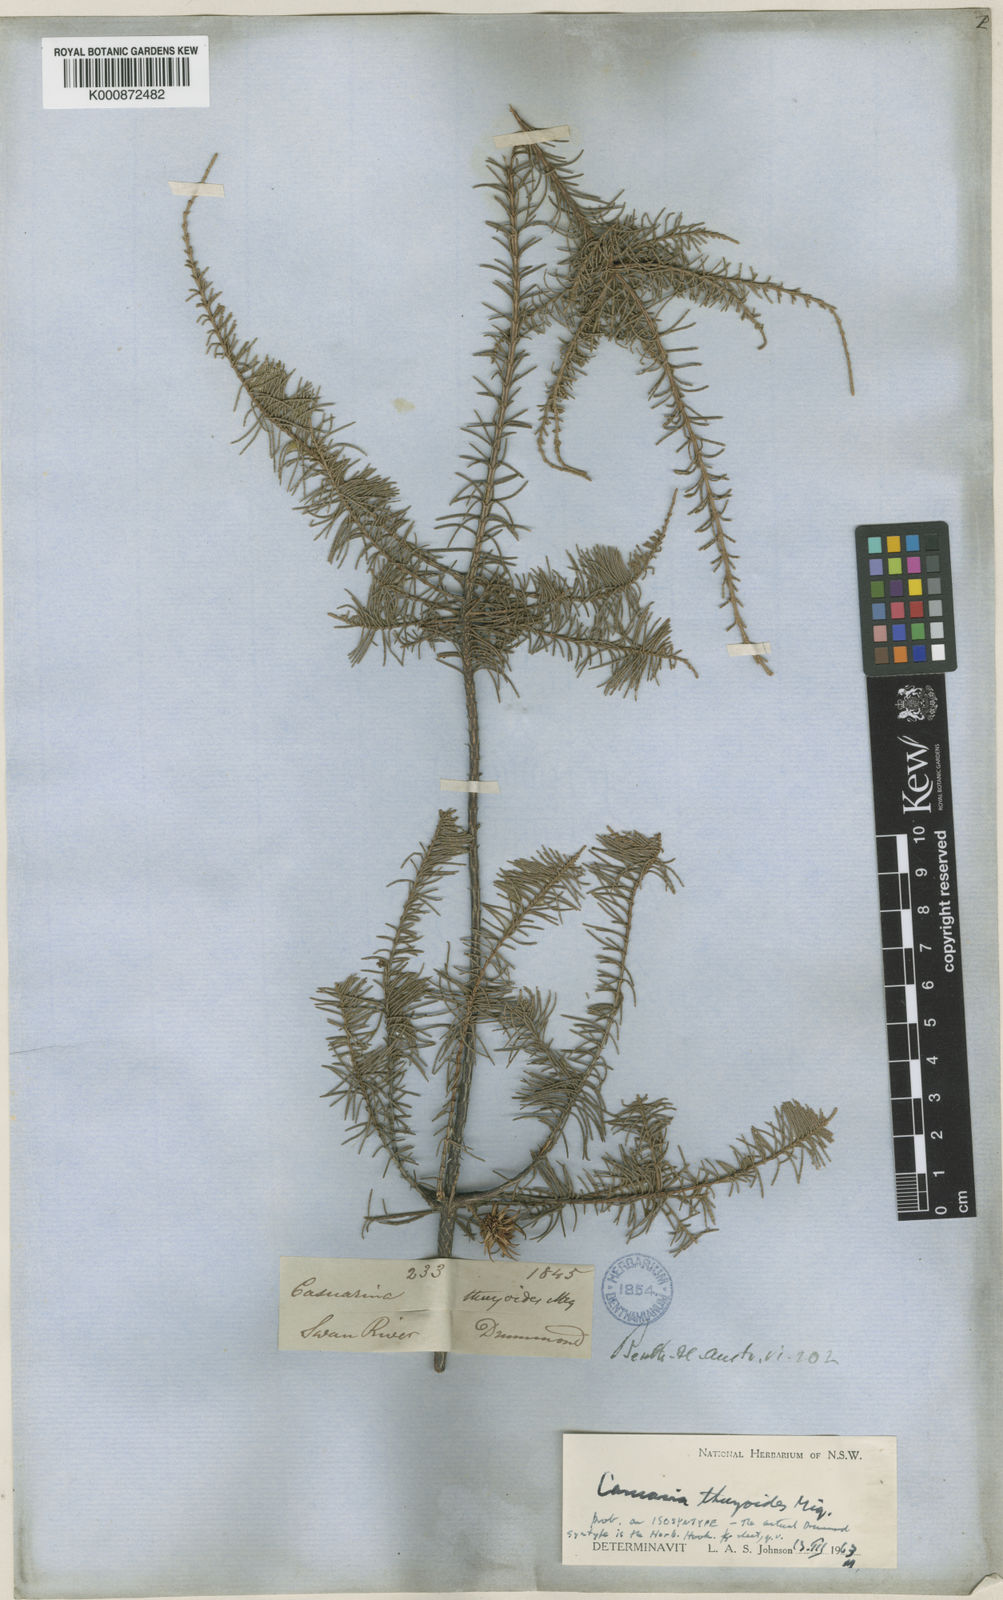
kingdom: Plantae
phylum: Tracheophyta
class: Magnoliopsida
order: Fagales
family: Casuarinaceae
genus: Allocasuarina
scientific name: Allocasuarina thuyoides
